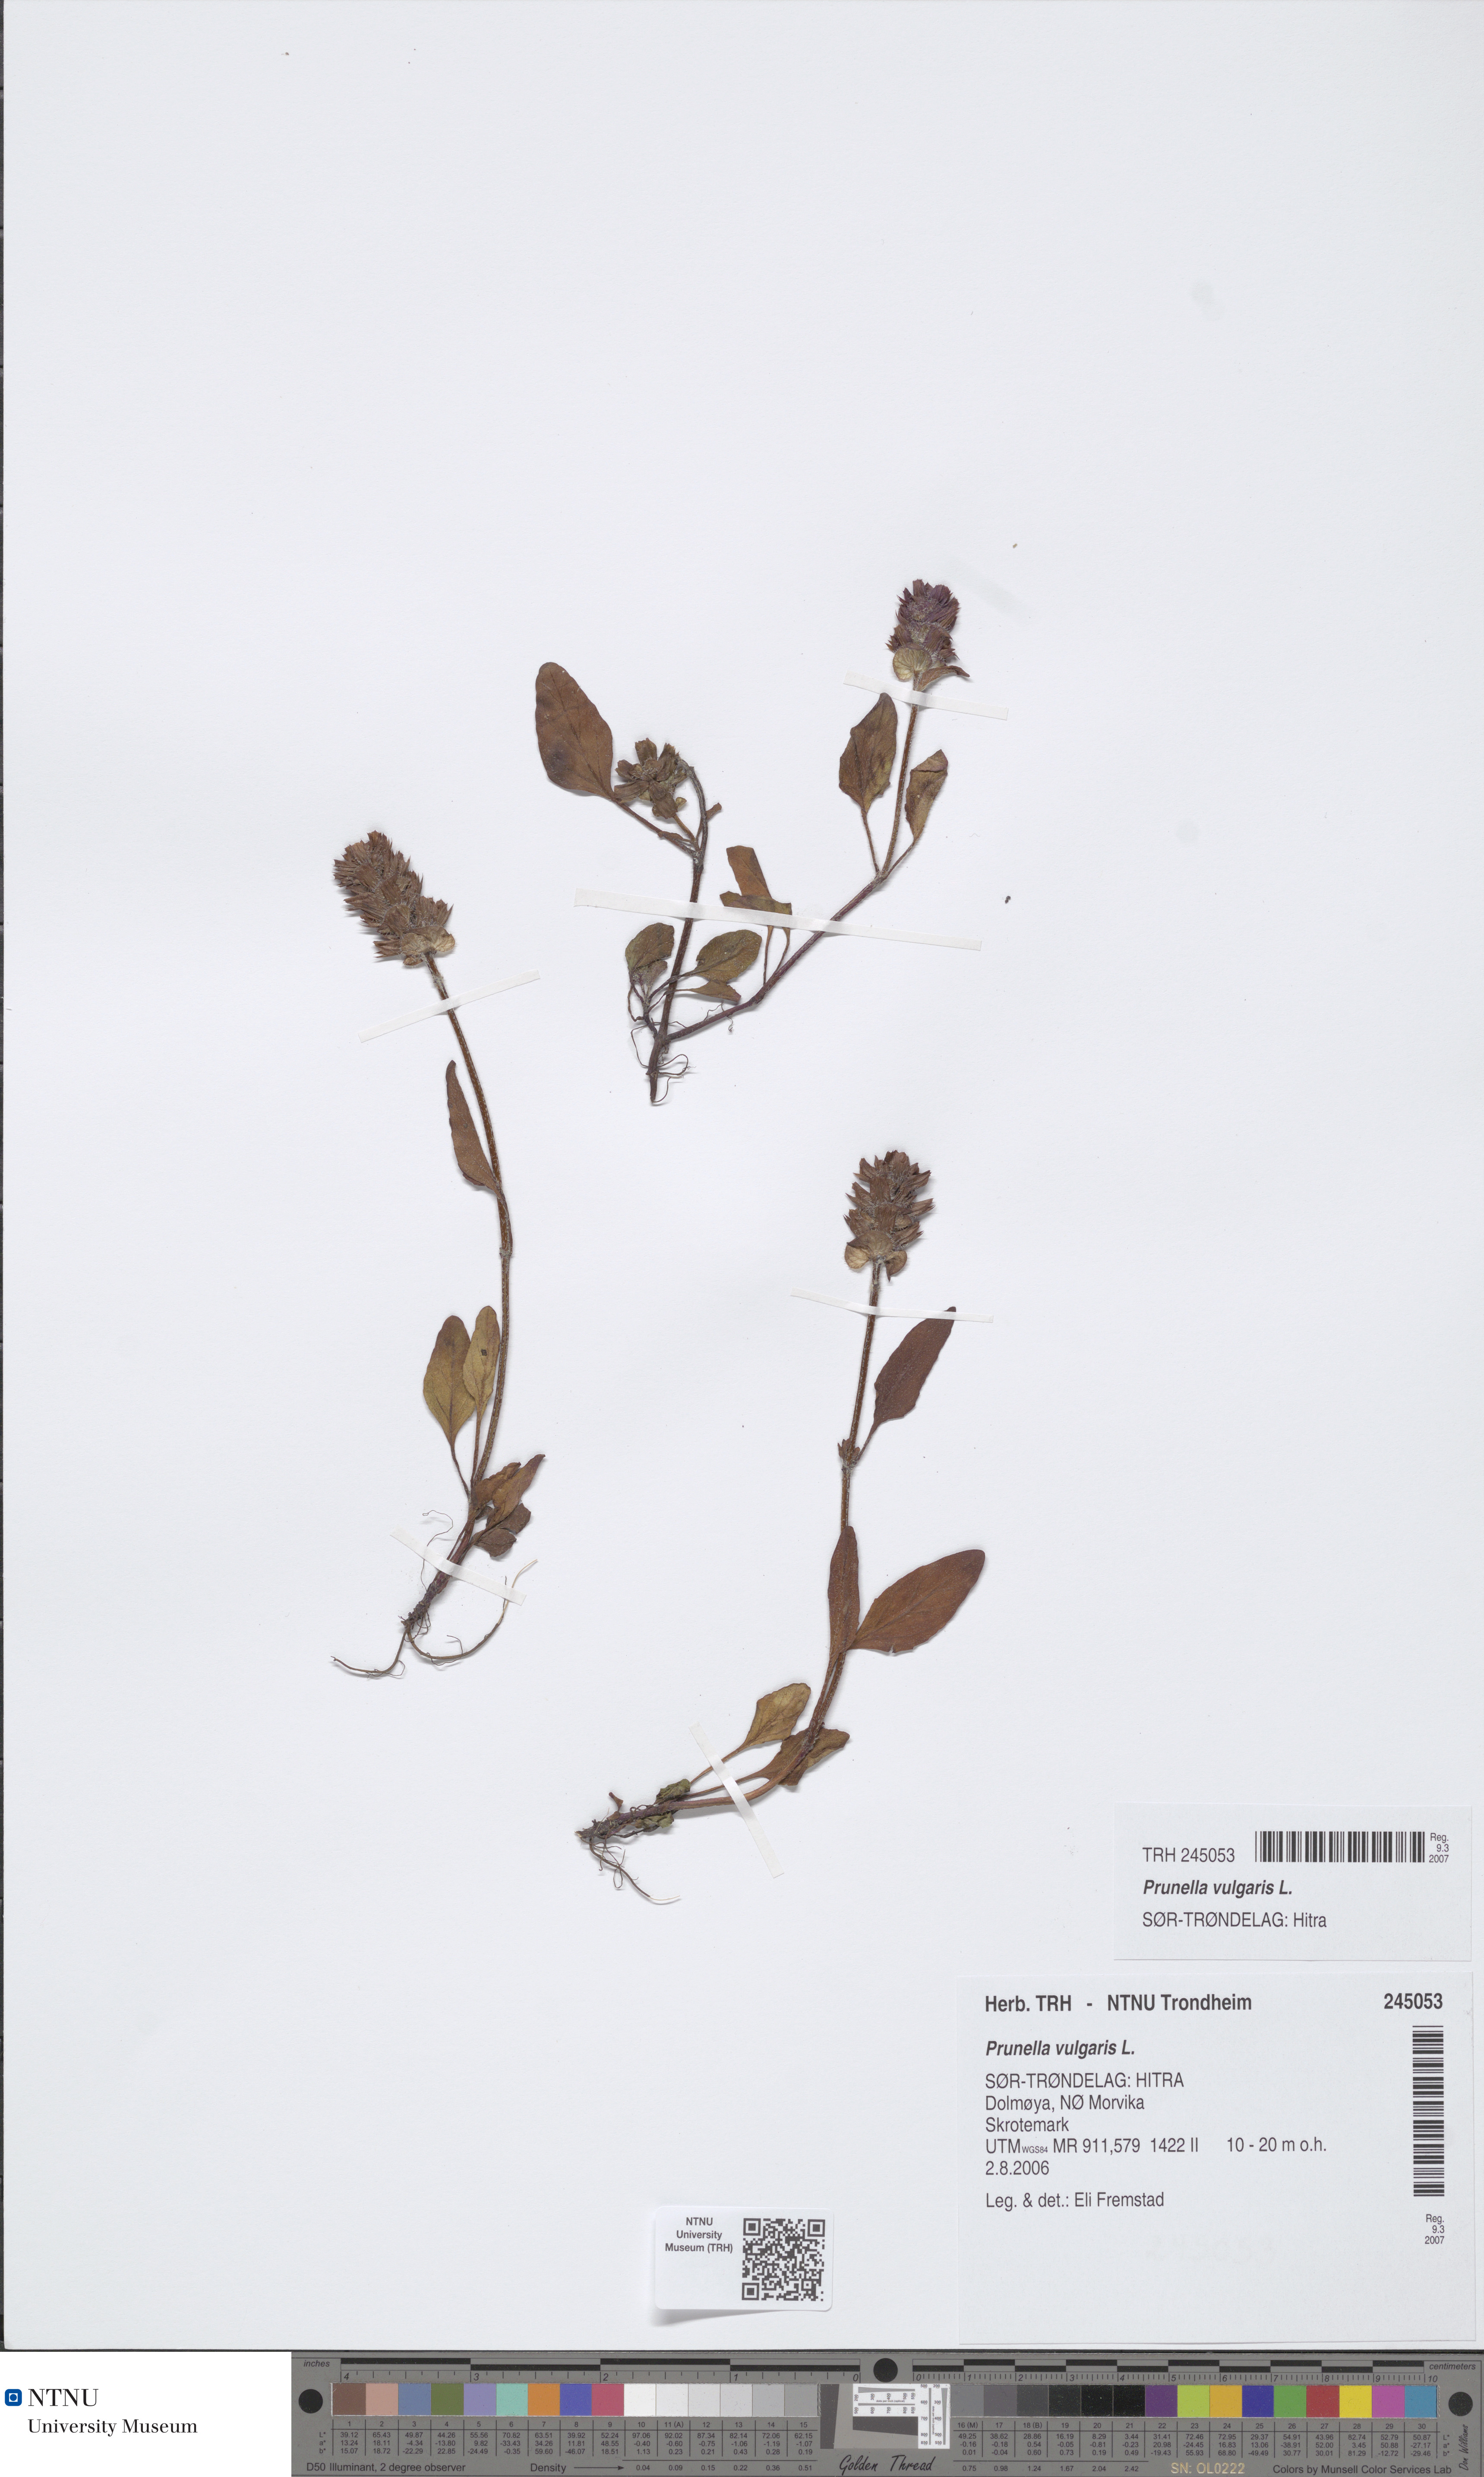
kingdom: Plantae
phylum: Tracheophyta
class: Magnoliopsida
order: Lamiales
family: Lamiaceae
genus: Prunella
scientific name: Prunella vulgaris
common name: Heal-all
